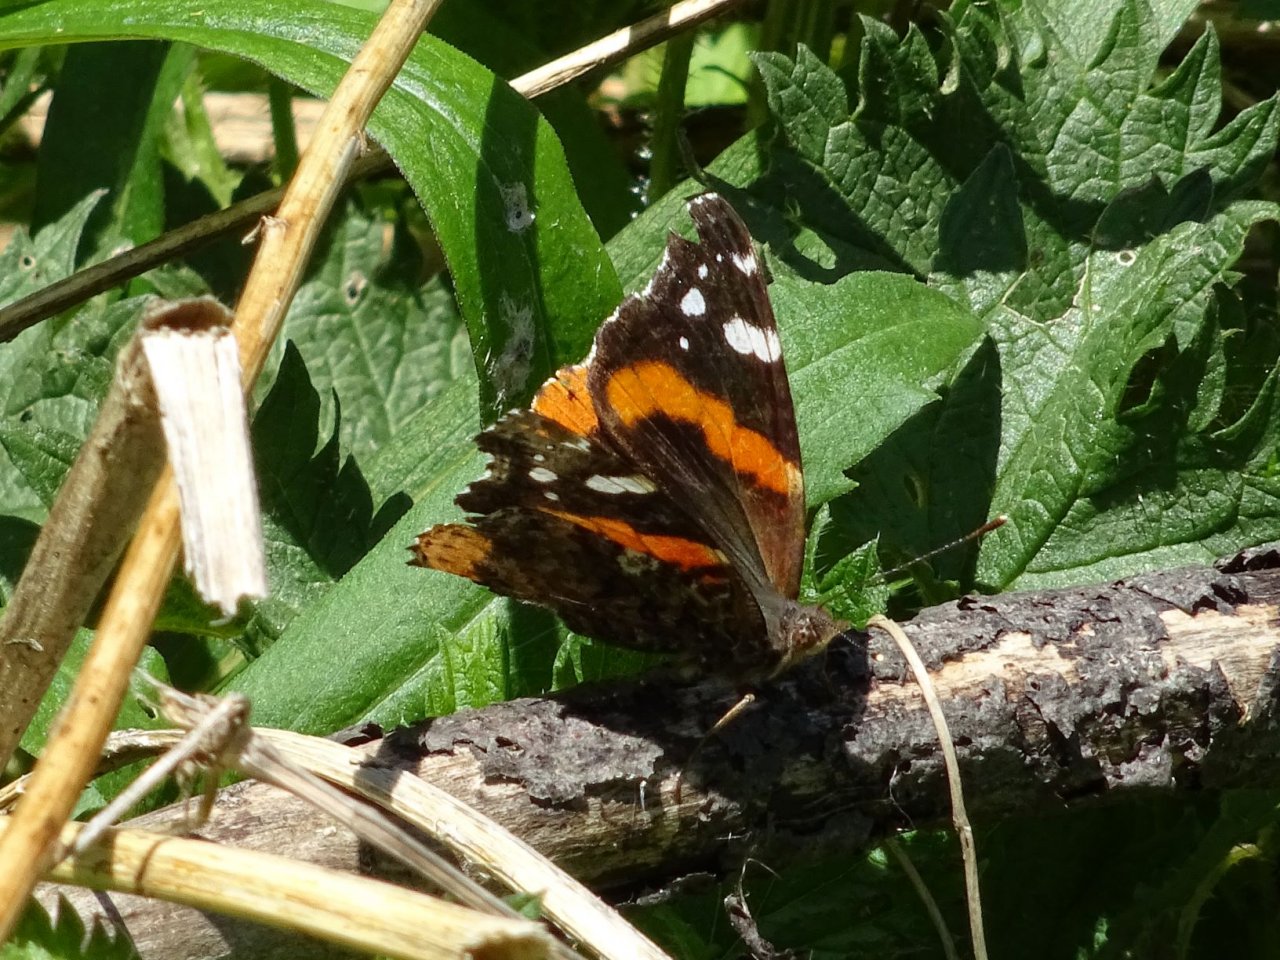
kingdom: Animalia
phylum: Arthropoda
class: Insecta
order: Lepidoptera
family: Nymphalidae
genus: Vanessa
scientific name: Vanessa atalanta
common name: Red Admiral
